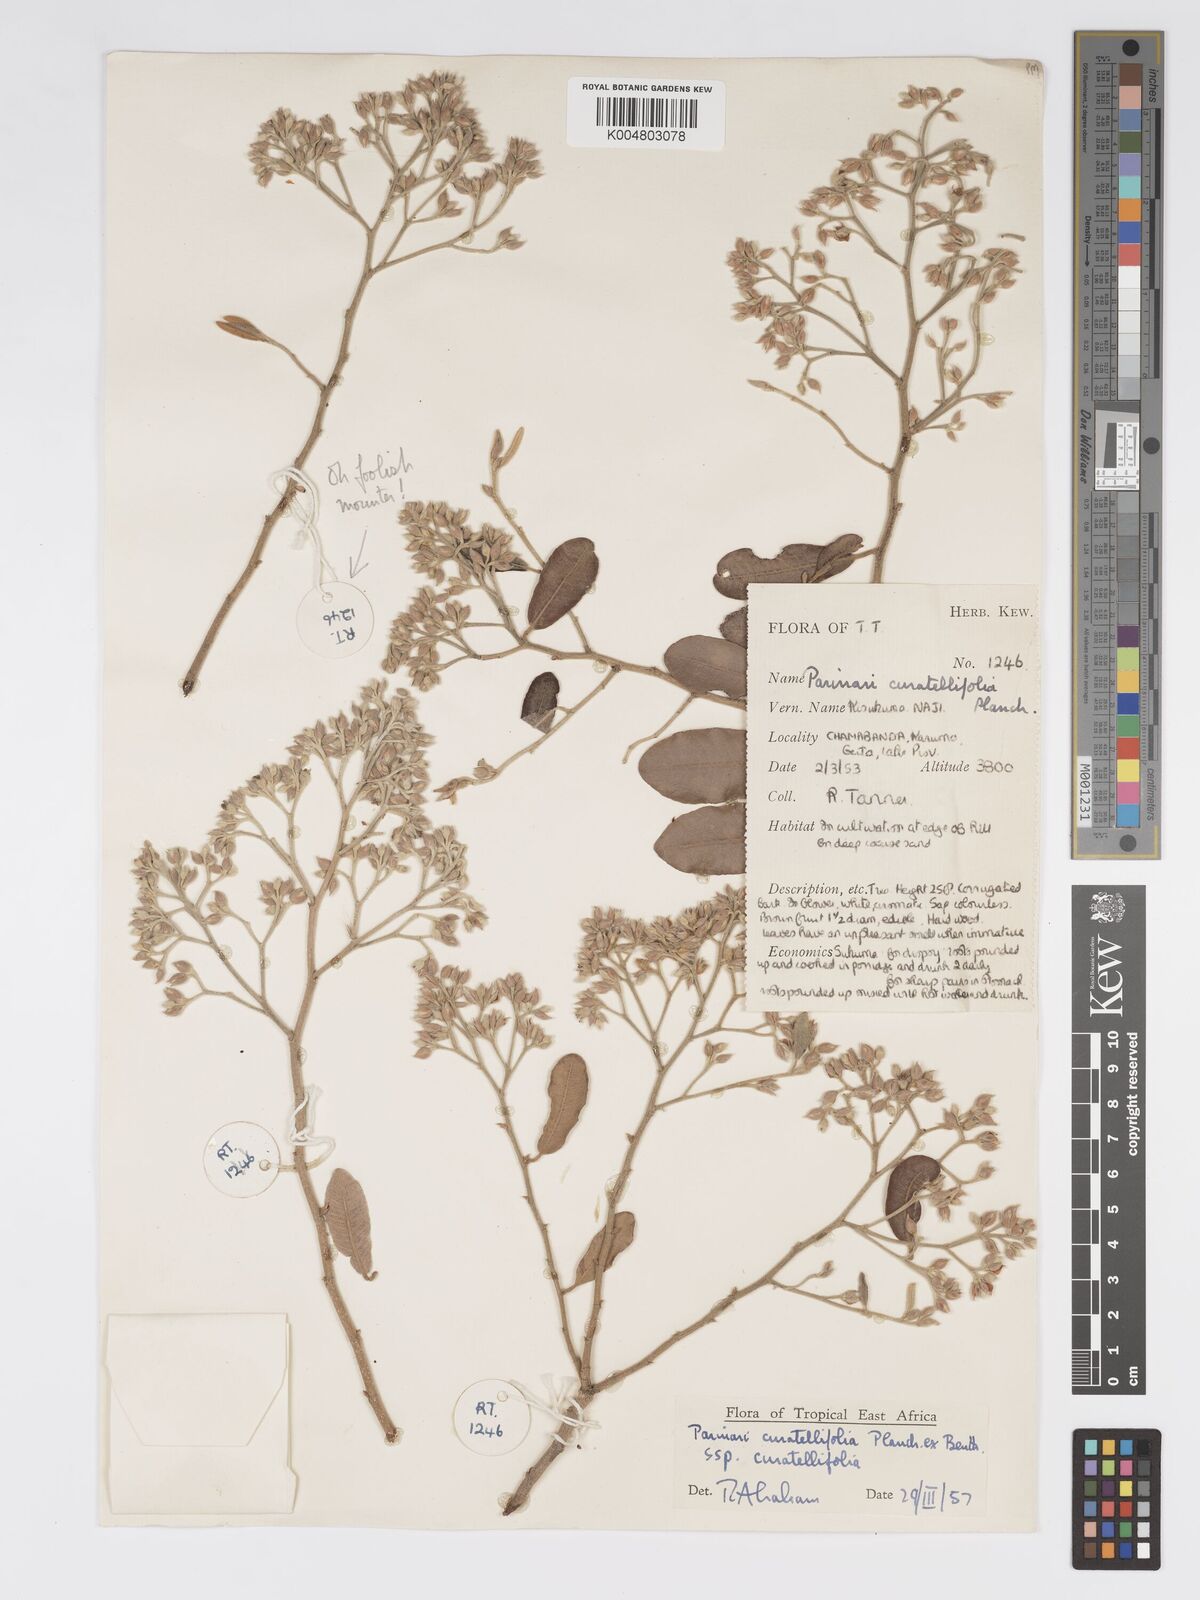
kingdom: Plantae
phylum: Tracheophyta
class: Magnoliopsida
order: Malpighiales
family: Chrysobalanaceae
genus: Parinari
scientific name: Parinari curatellifolia
